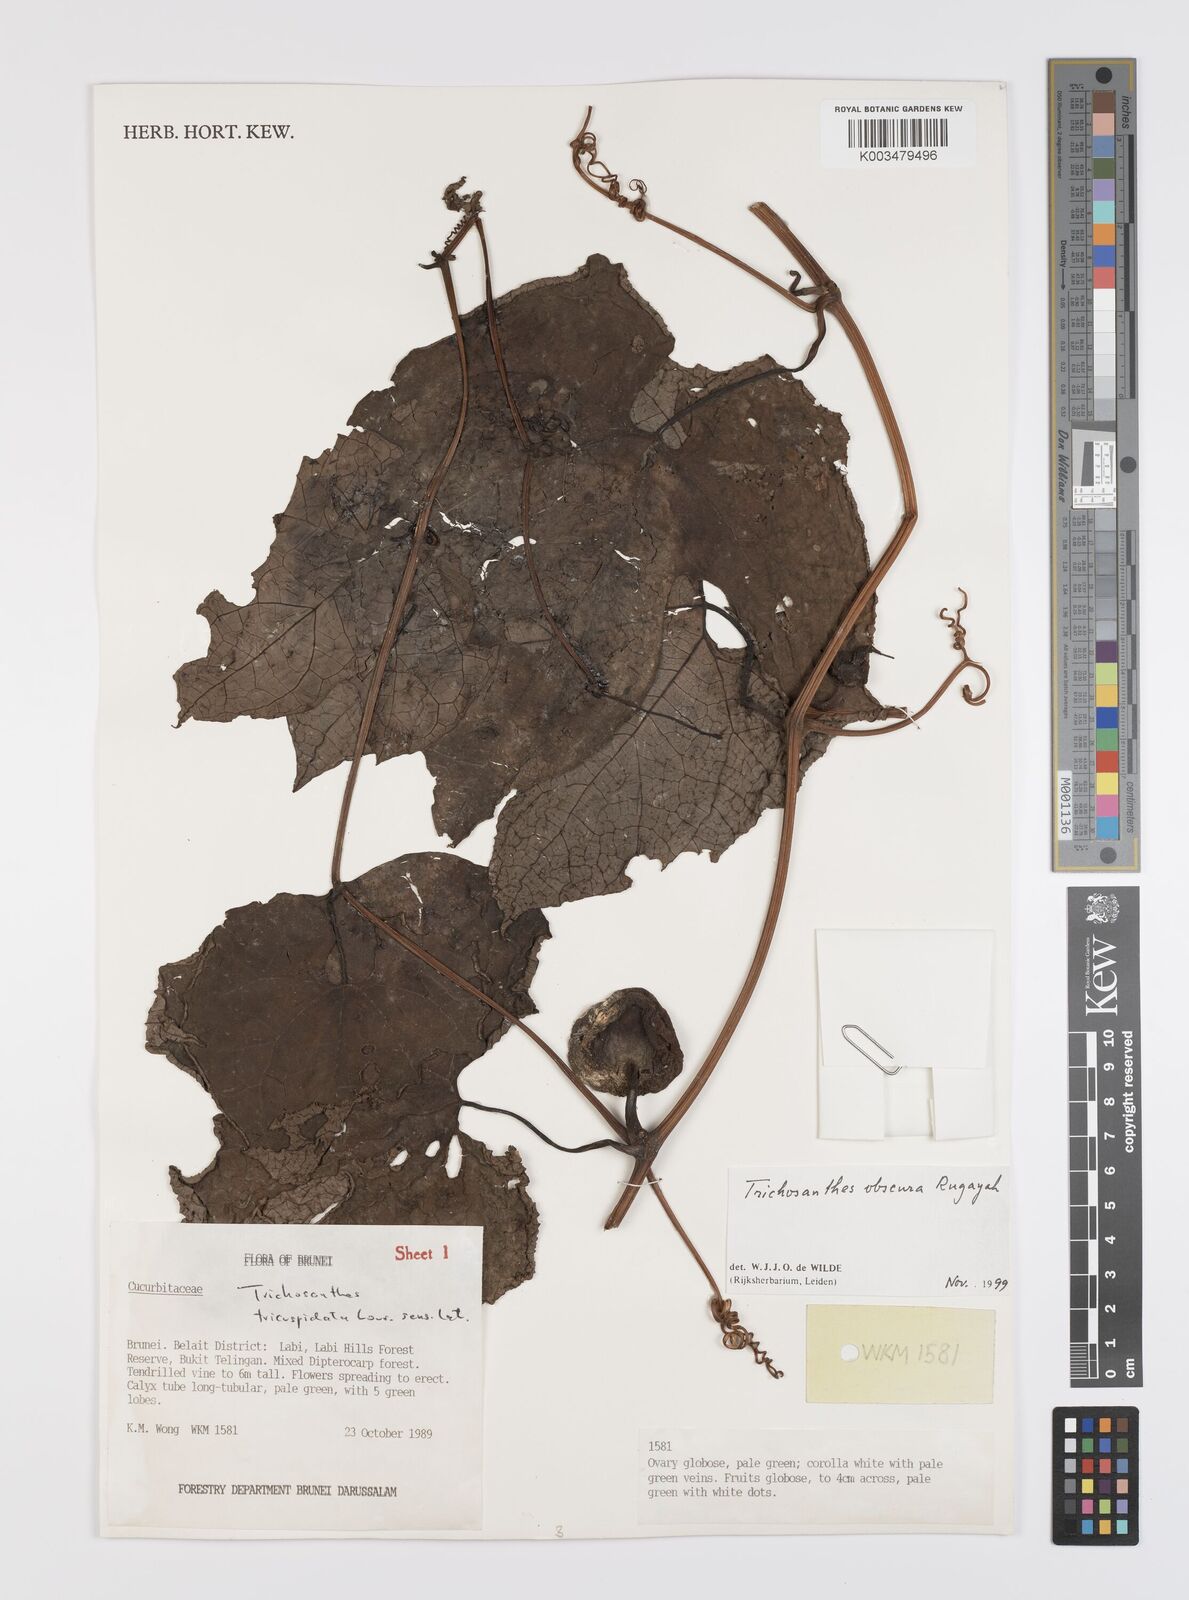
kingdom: Plantae
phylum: Tracheophyta
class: Magnoliopsida
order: Cucurbitales
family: Cucurbitaceae
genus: Trichosanthes
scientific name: Trichosanthes obscura
